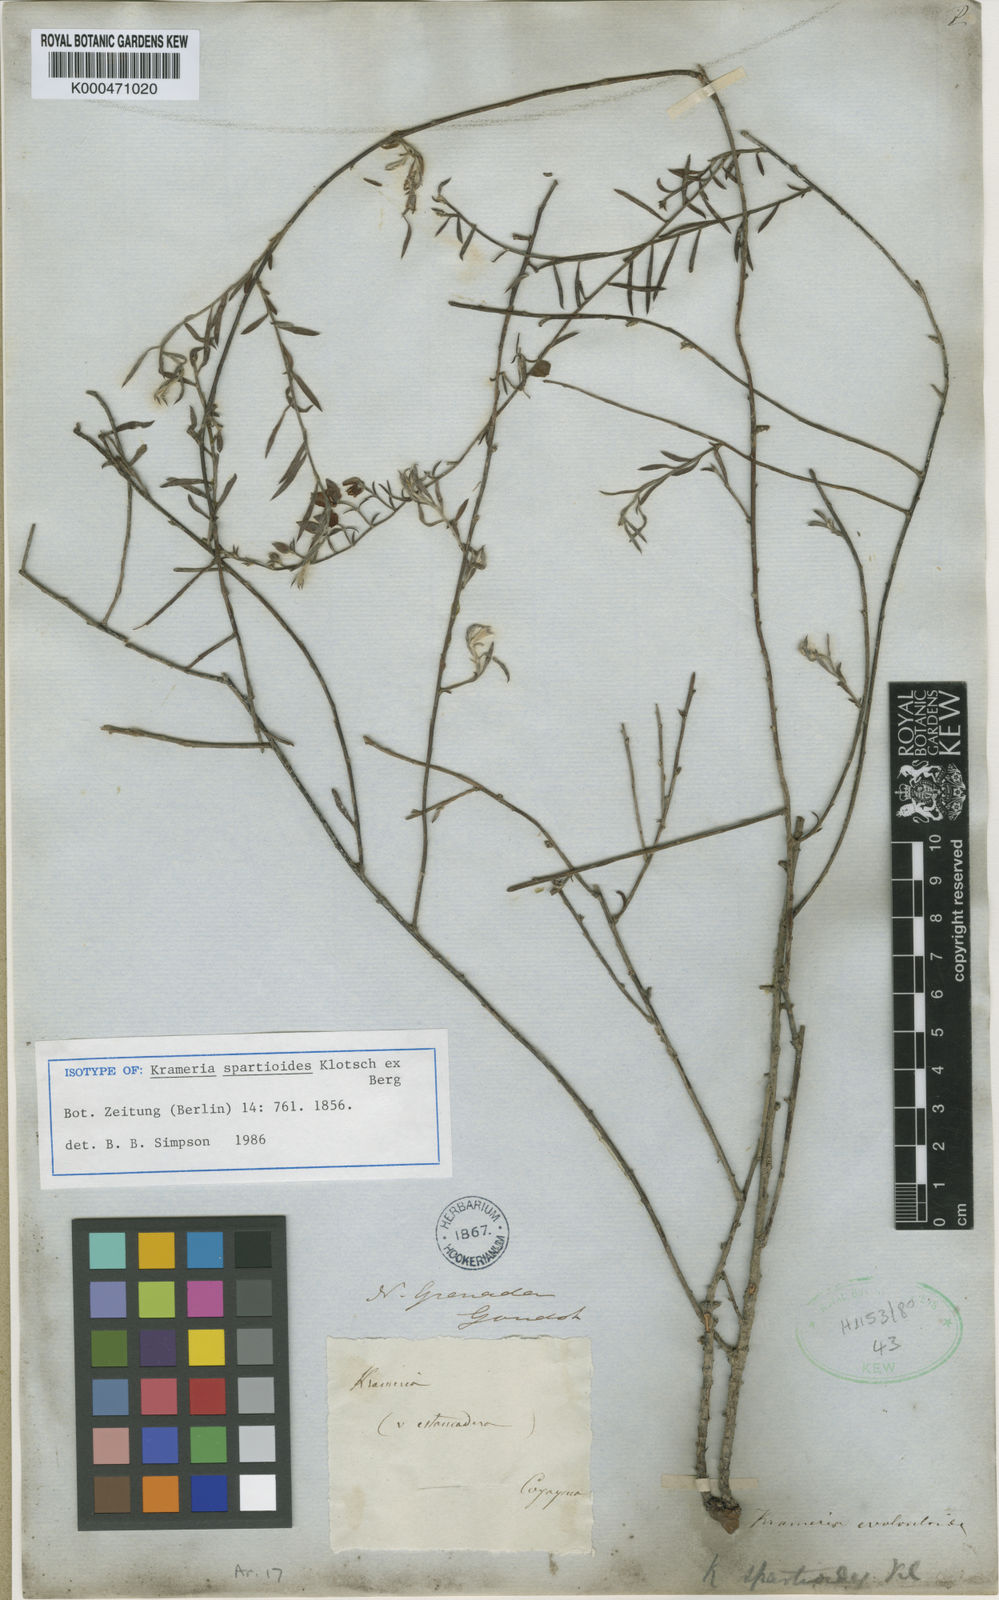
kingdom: Plantae
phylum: Tracheophyta
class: Magnoliopsida
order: Zygophyllales
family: Krameriaceae
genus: Krameria
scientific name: Krameria spartioides
